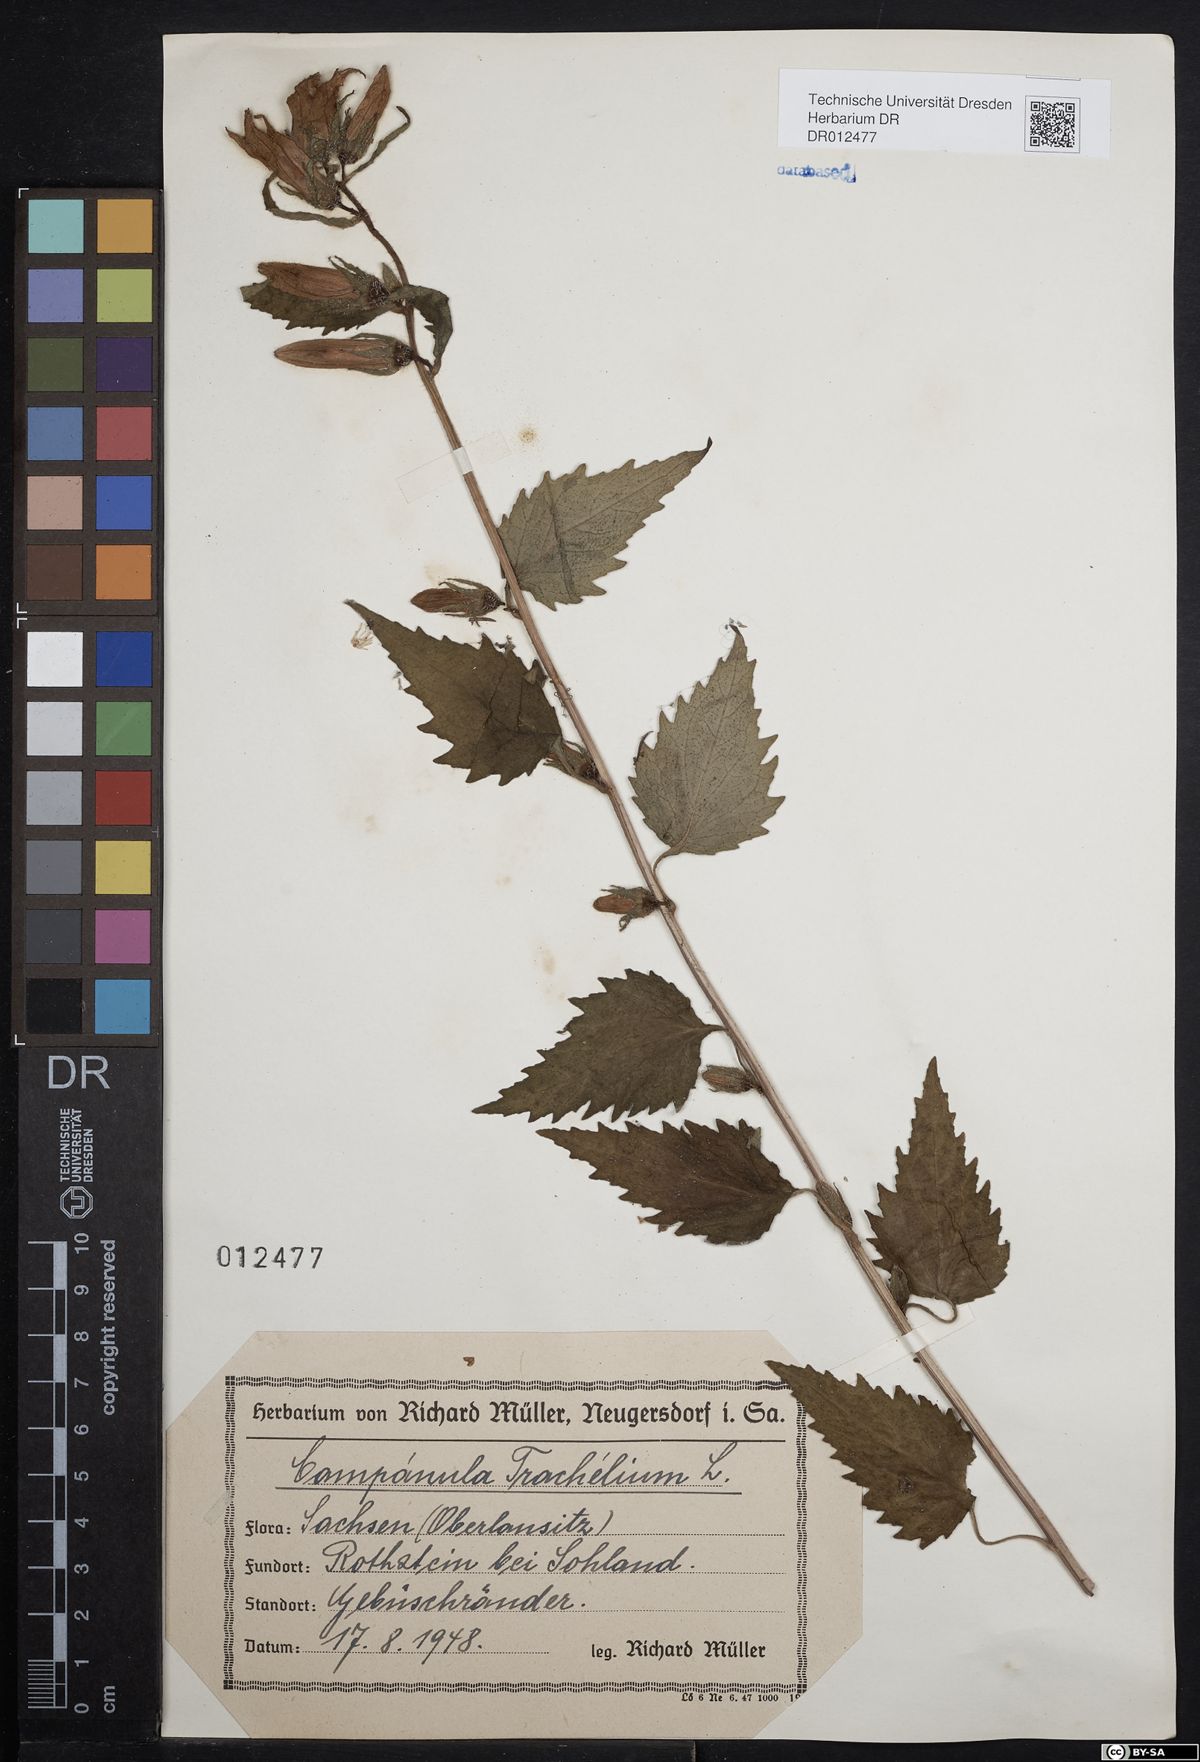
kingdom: Plantae
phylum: Tracheophyta
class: Magnoliopsida
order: Asterales
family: Campanulaceae
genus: Campanula
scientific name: Campanula trachelium
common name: Nettle-leaved bellflower
